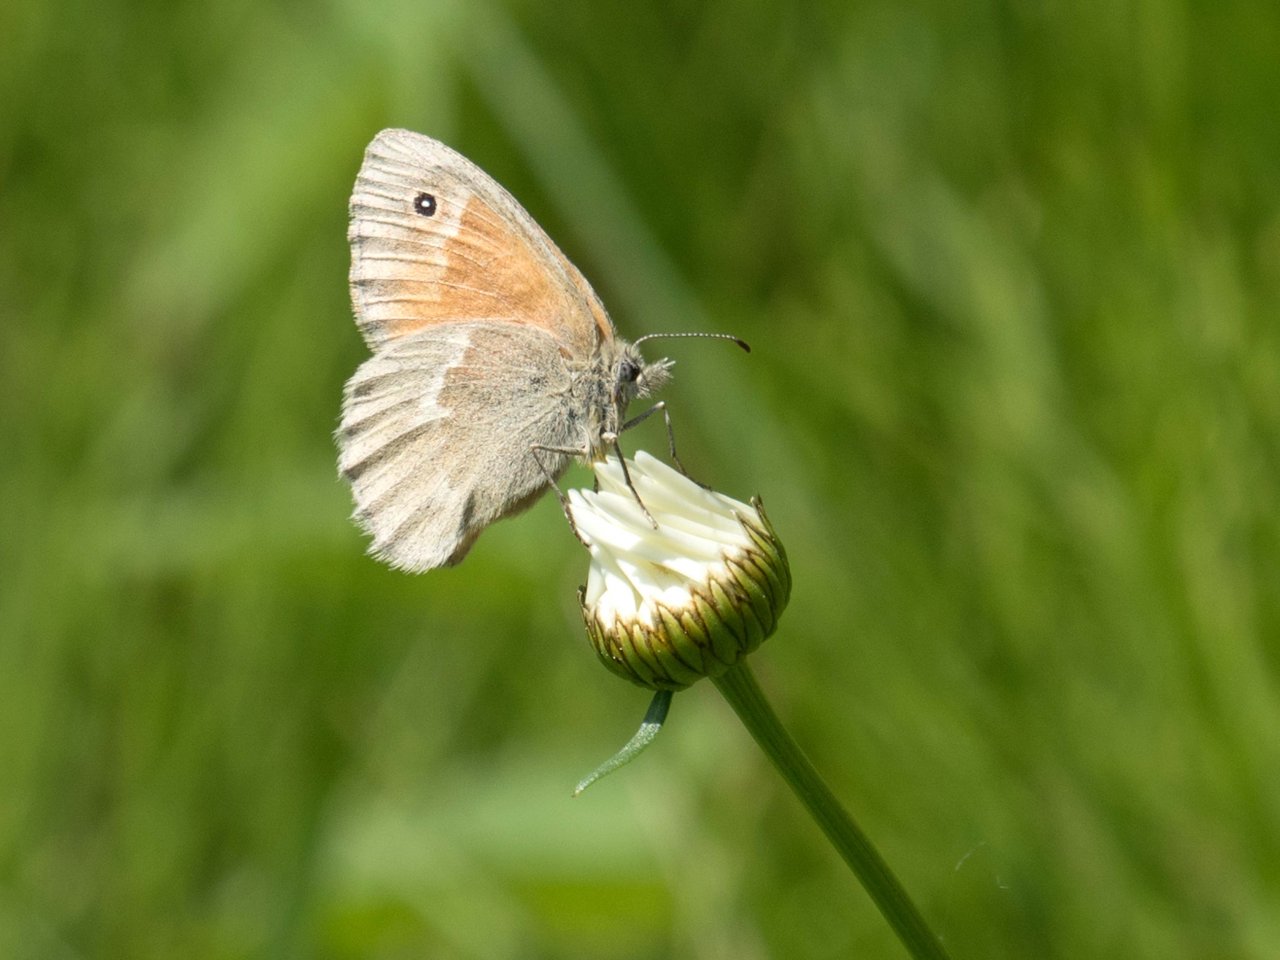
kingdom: Animalia
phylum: Arthropoda
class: Insecta
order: Lepidoptera
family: Nymphalidae
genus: Coenonympha
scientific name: Coenonympha tullia
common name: Large Heath
